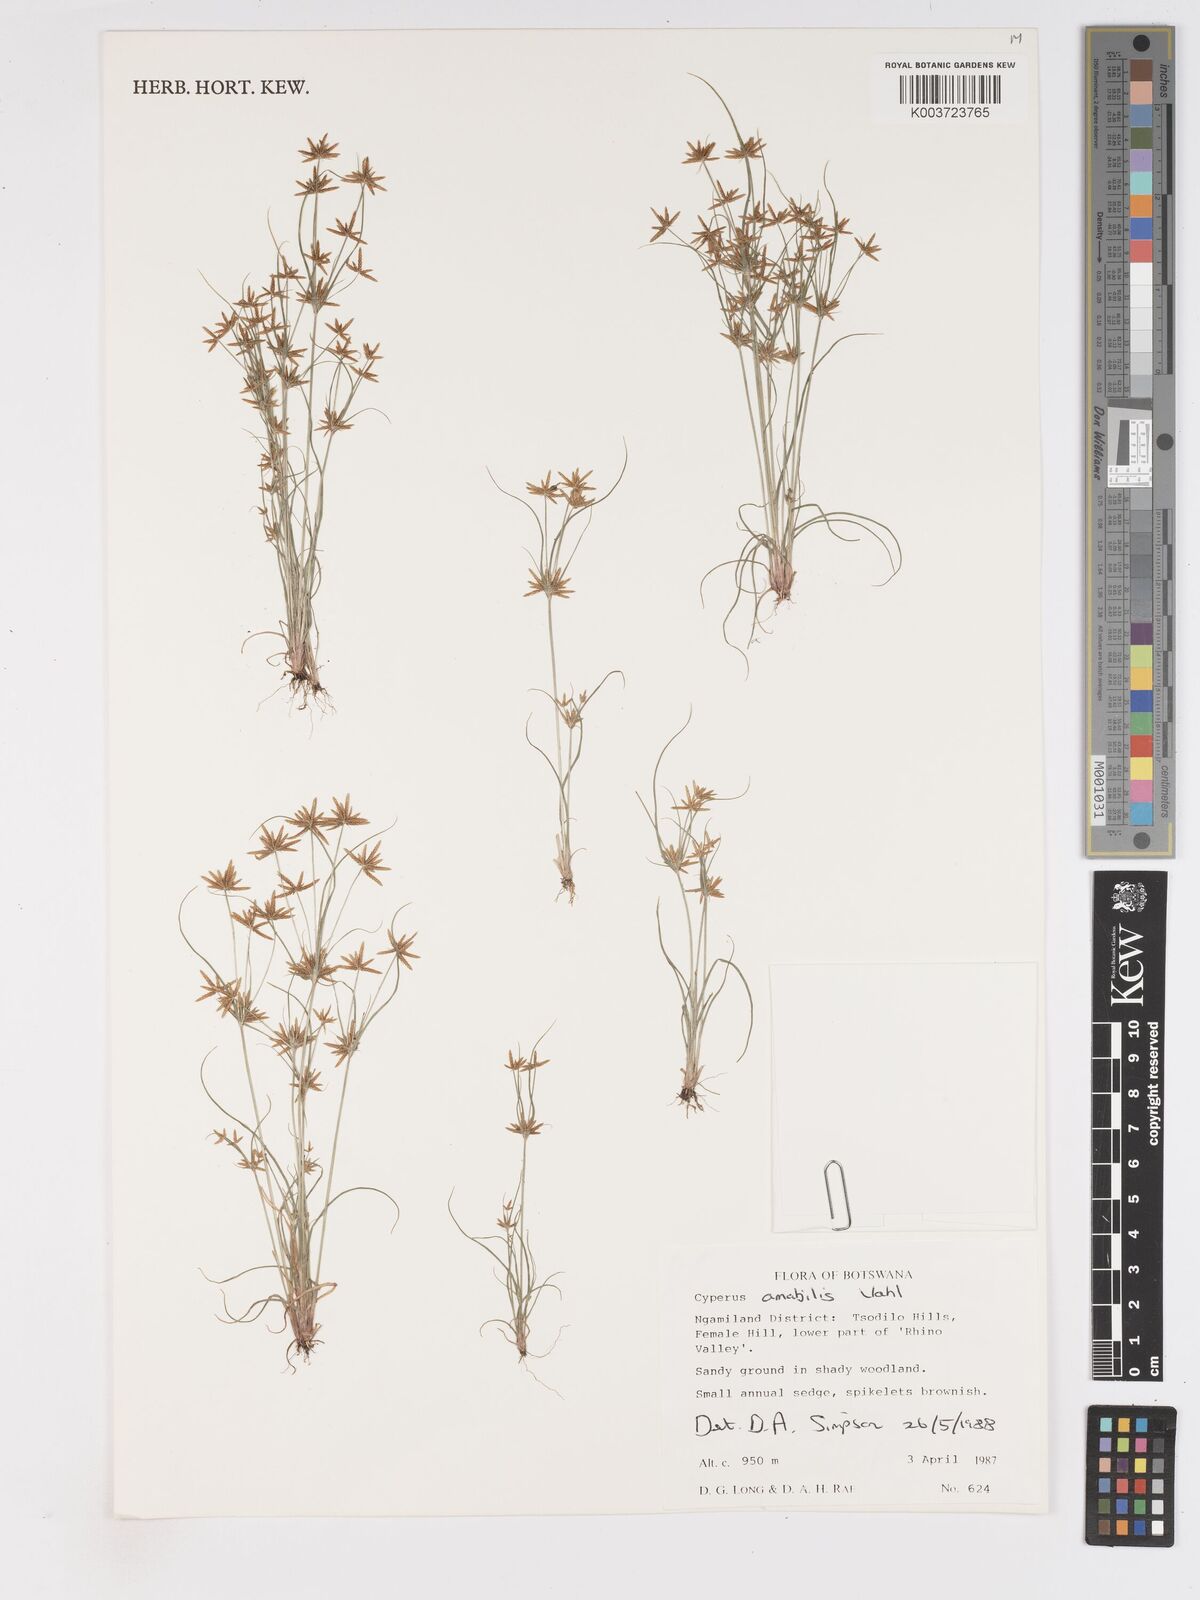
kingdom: Plantae
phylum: Tracheophyta
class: Liliopsida
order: Poales
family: Cyperaceae
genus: Cyperus
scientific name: Cyperus amabilis
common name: Foothill flat sedge
